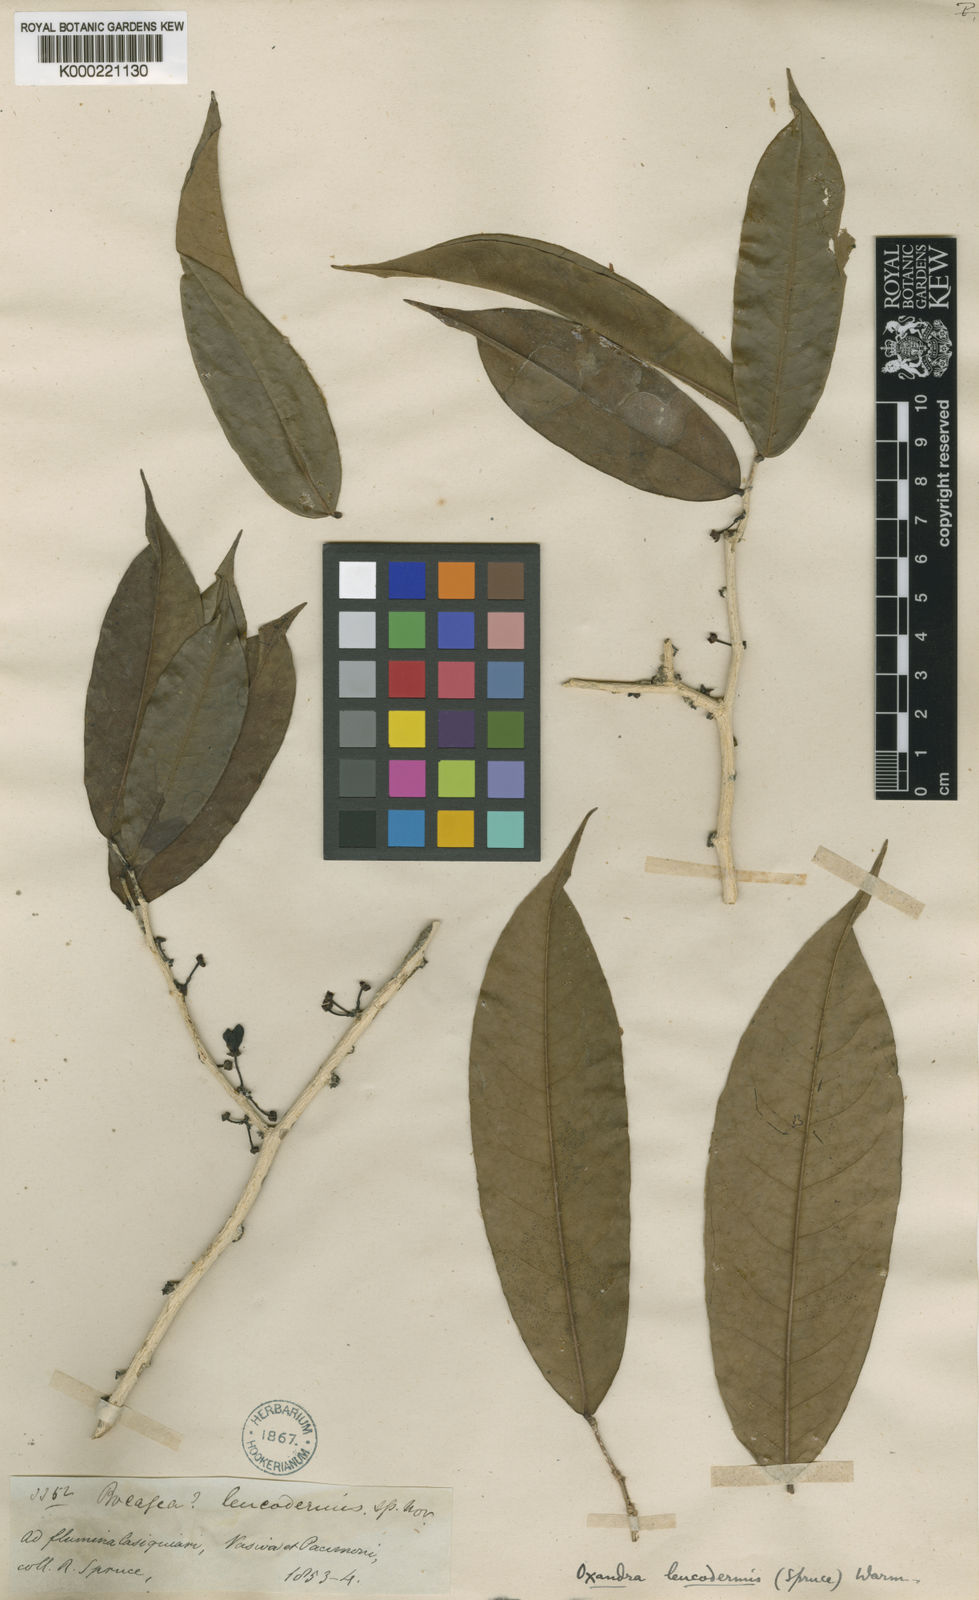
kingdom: Plantae
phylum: Tracheophyta
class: Magnoliopsida
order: Magnoliales
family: Annonaceae
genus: Oxandra
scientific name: Oxandra leucodermis
